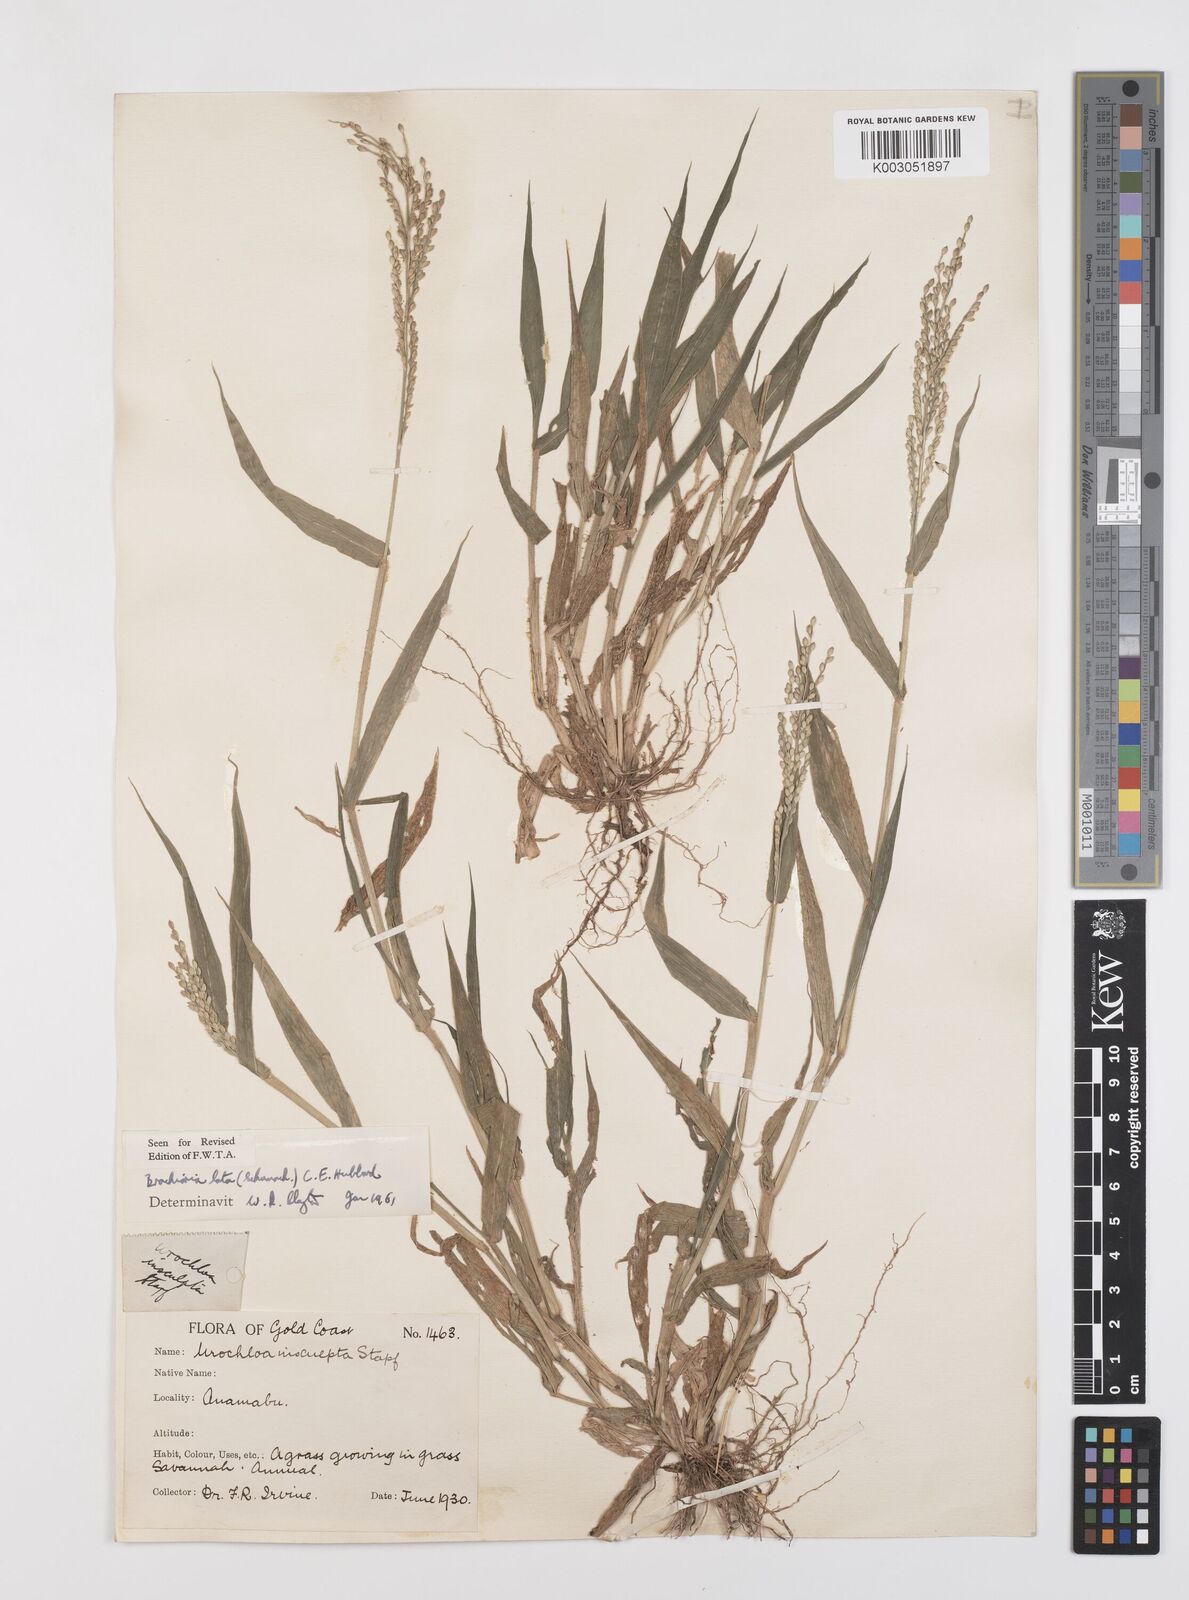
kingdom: Plantae
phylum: Tracheophyta
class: Liliopsida
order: Poales
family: Poaceae
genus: Urochloa
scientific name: Urochloa lata
